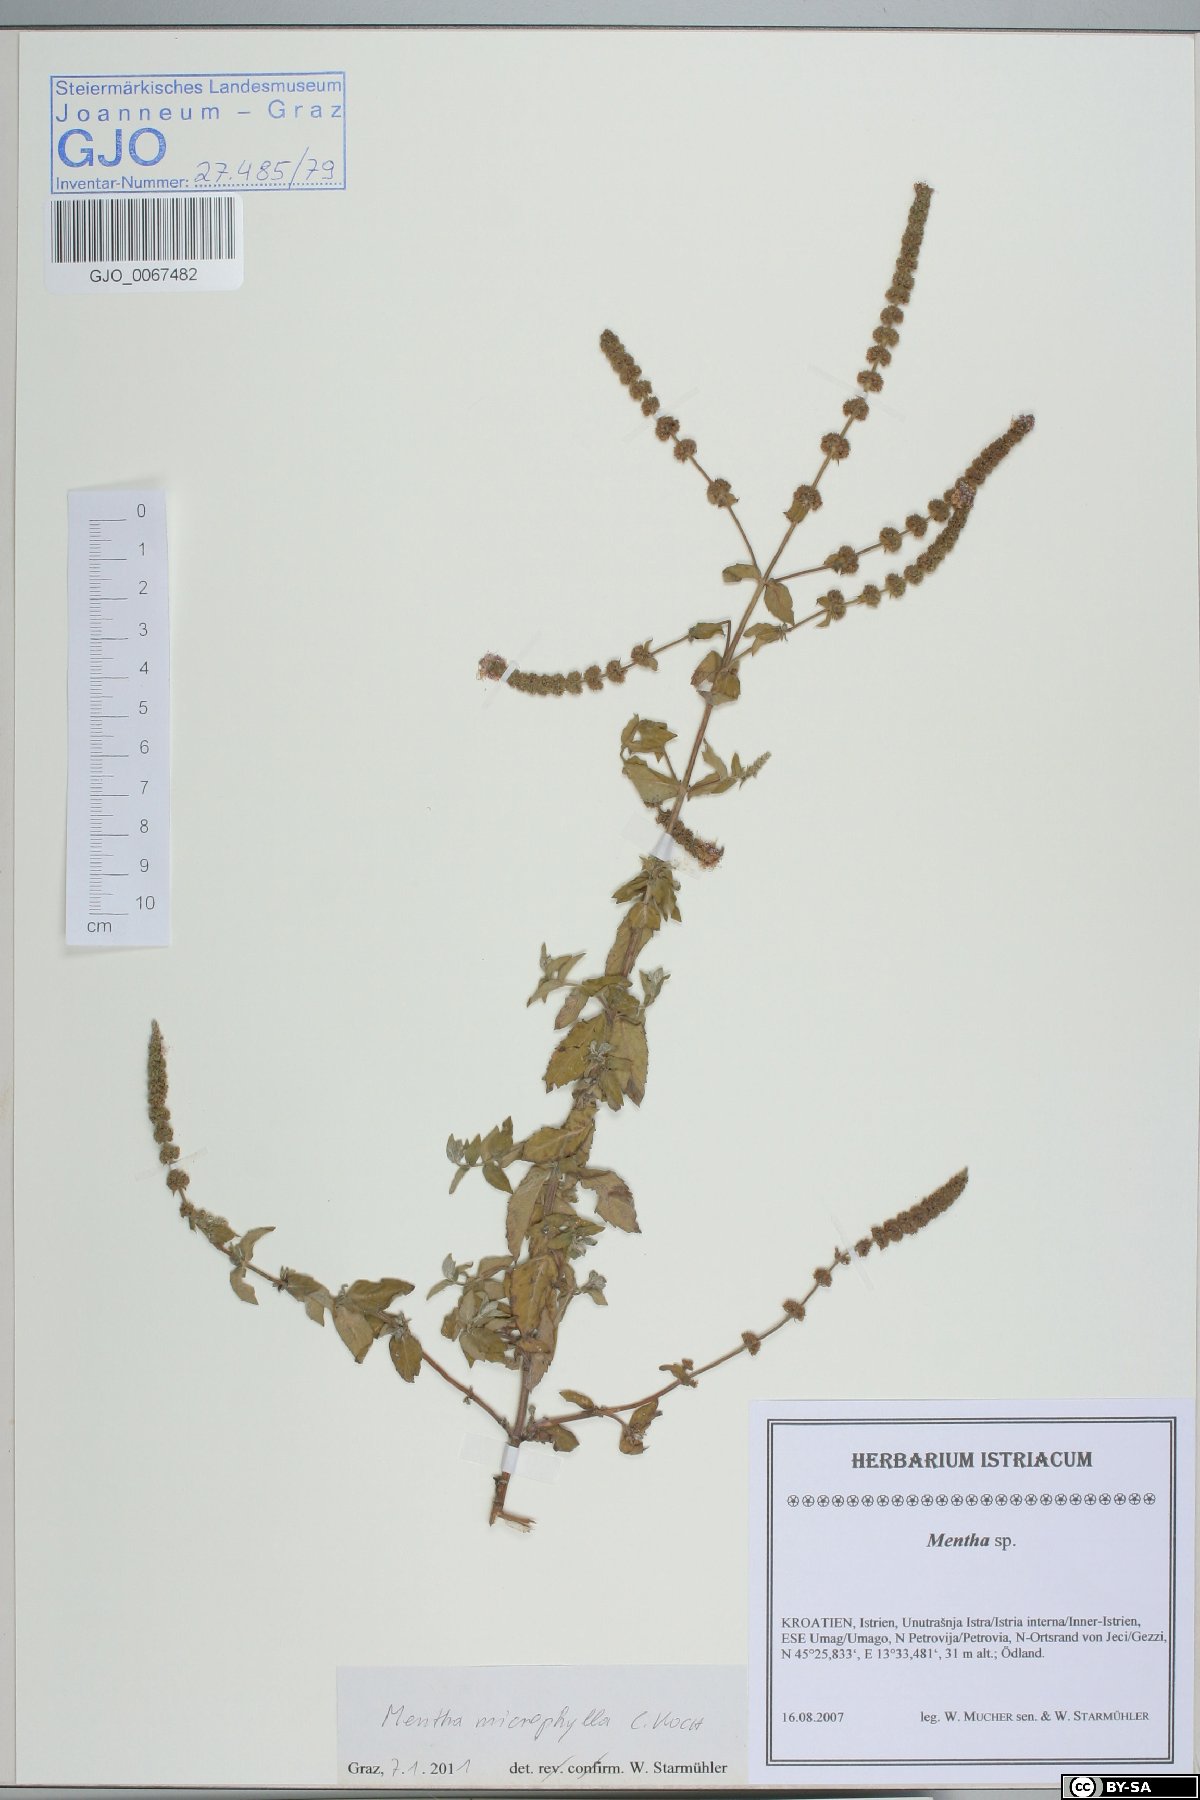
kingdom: Plantae
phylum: Tracheophyta
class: Magnoliopsida
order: Lamiales
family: Lamiaceae
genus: Mentha
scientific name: Mentha spicata
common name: Spearmint
